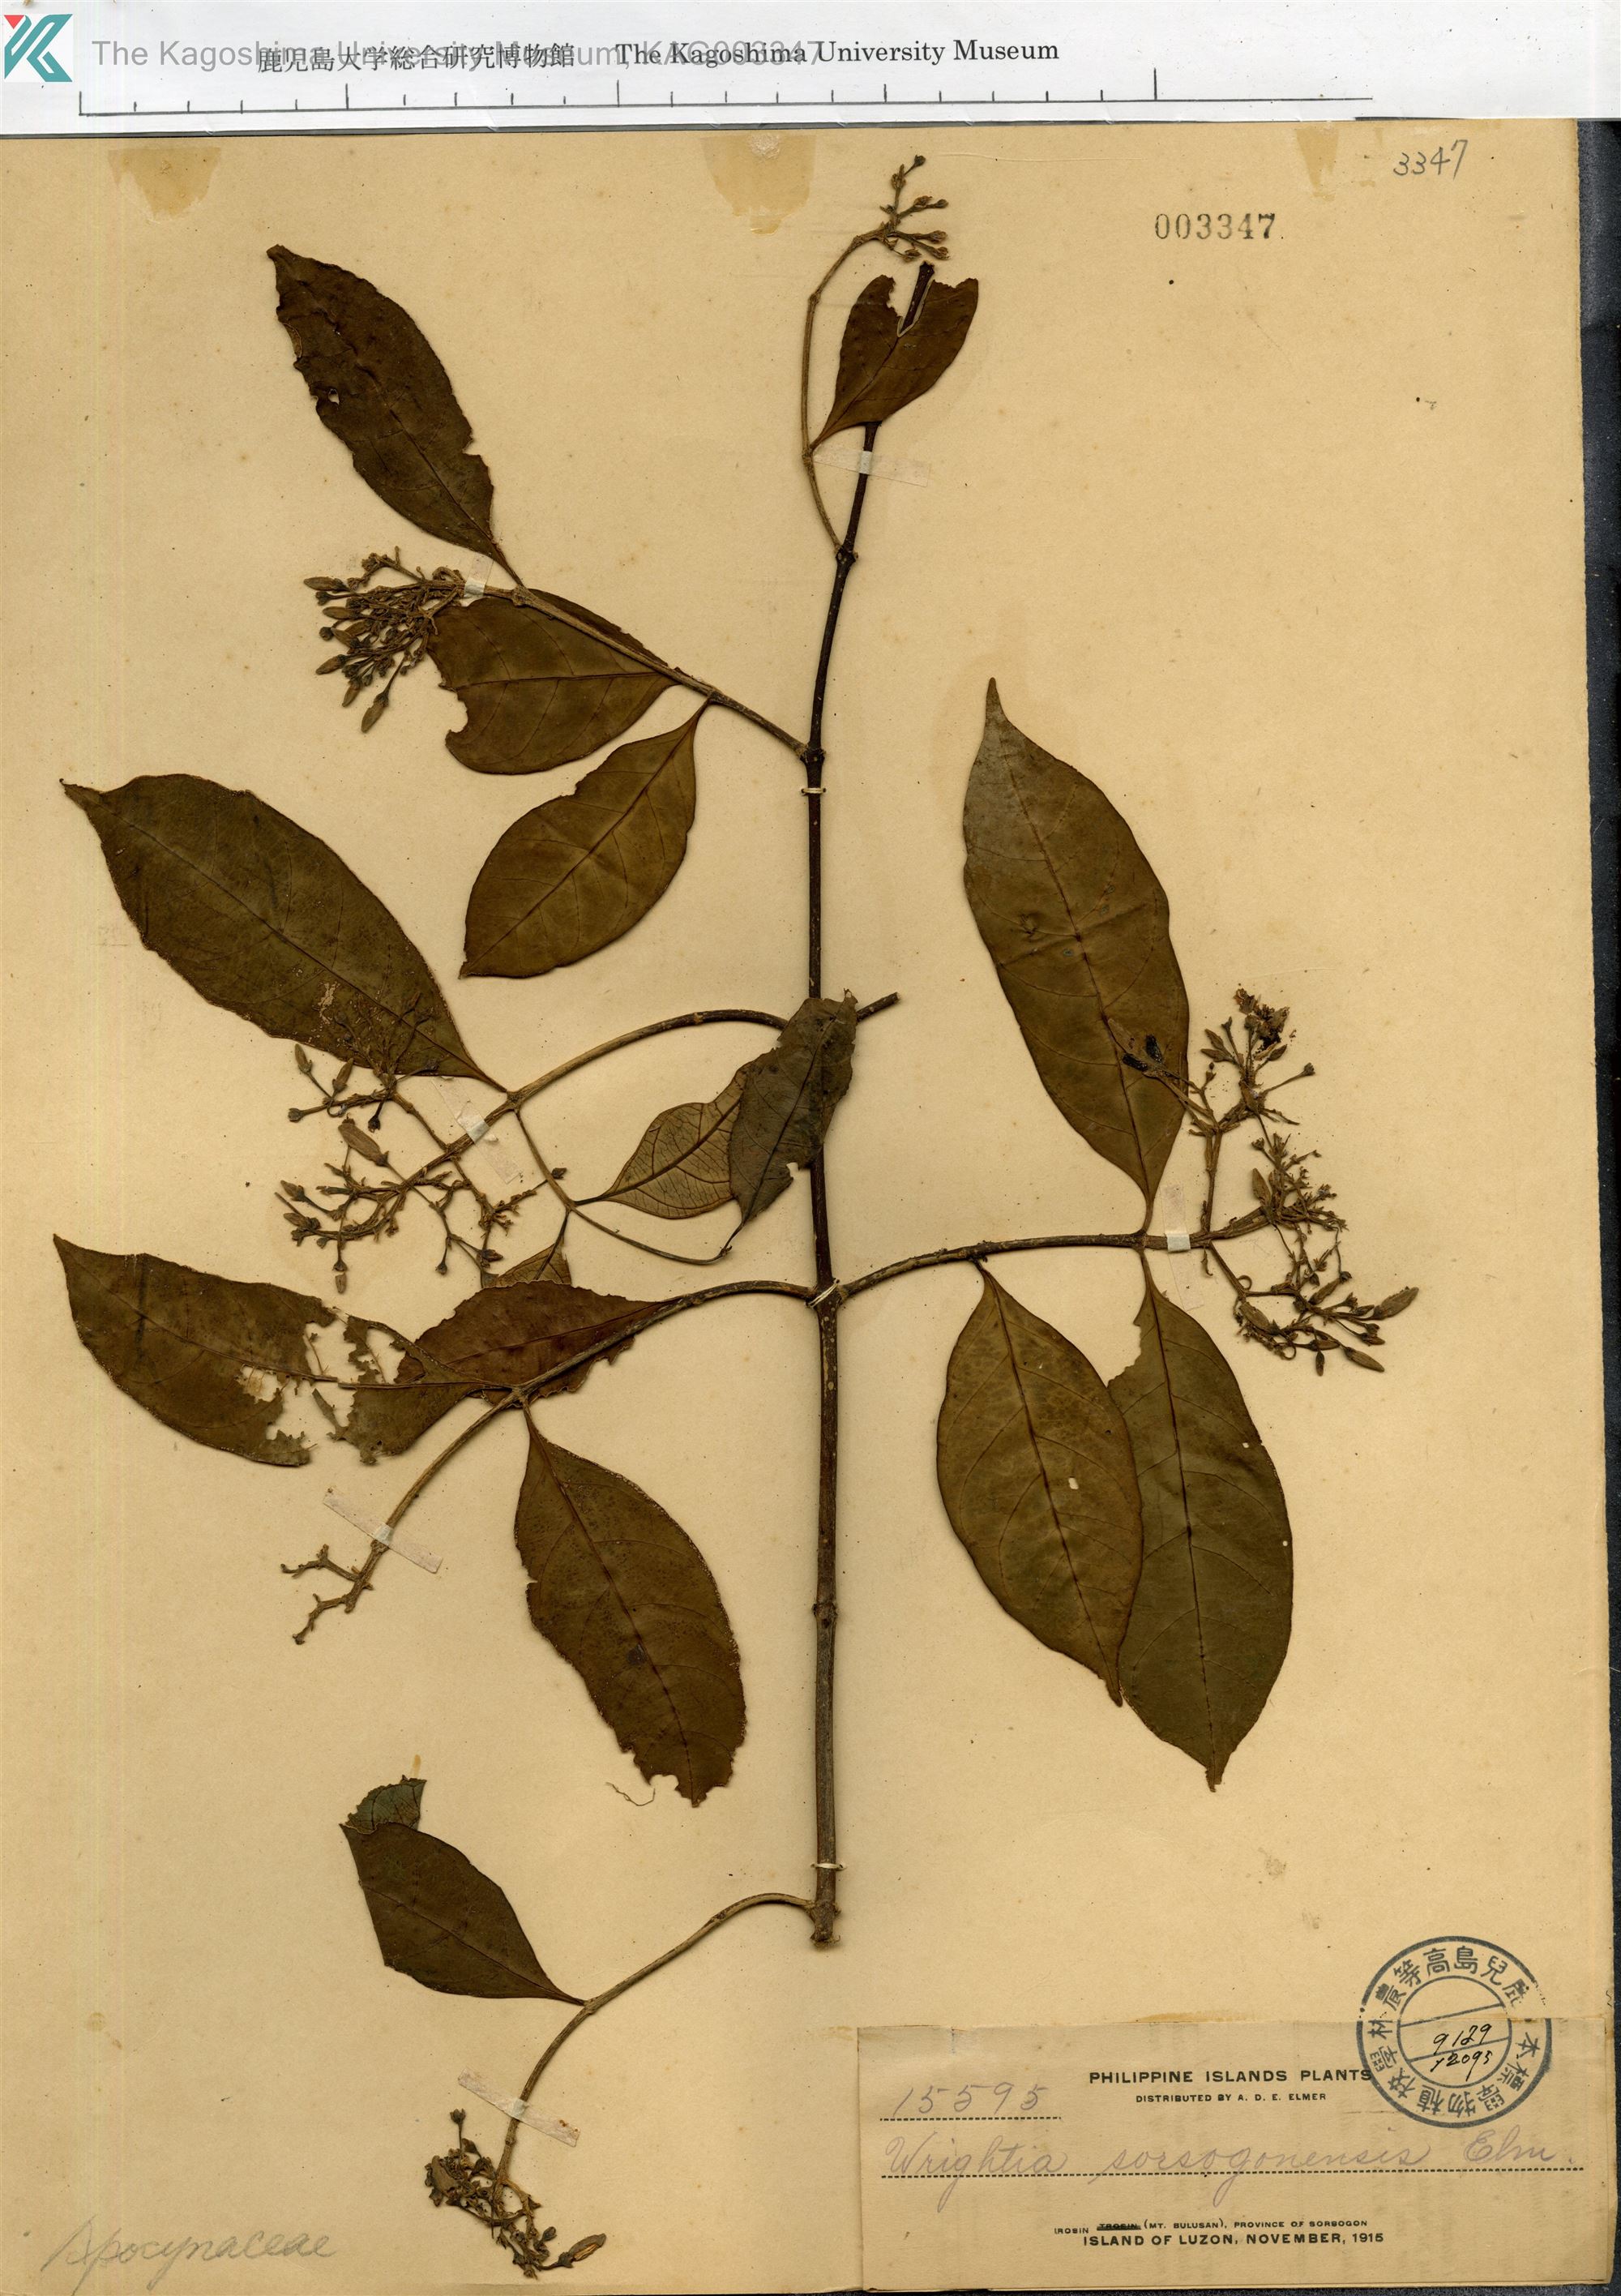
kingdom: Plantae
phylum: Tracheophyta
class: Magnoliopsida
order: Gentianales
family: Apocynaceae
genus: Wrightia
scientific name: Wrightia laevis
